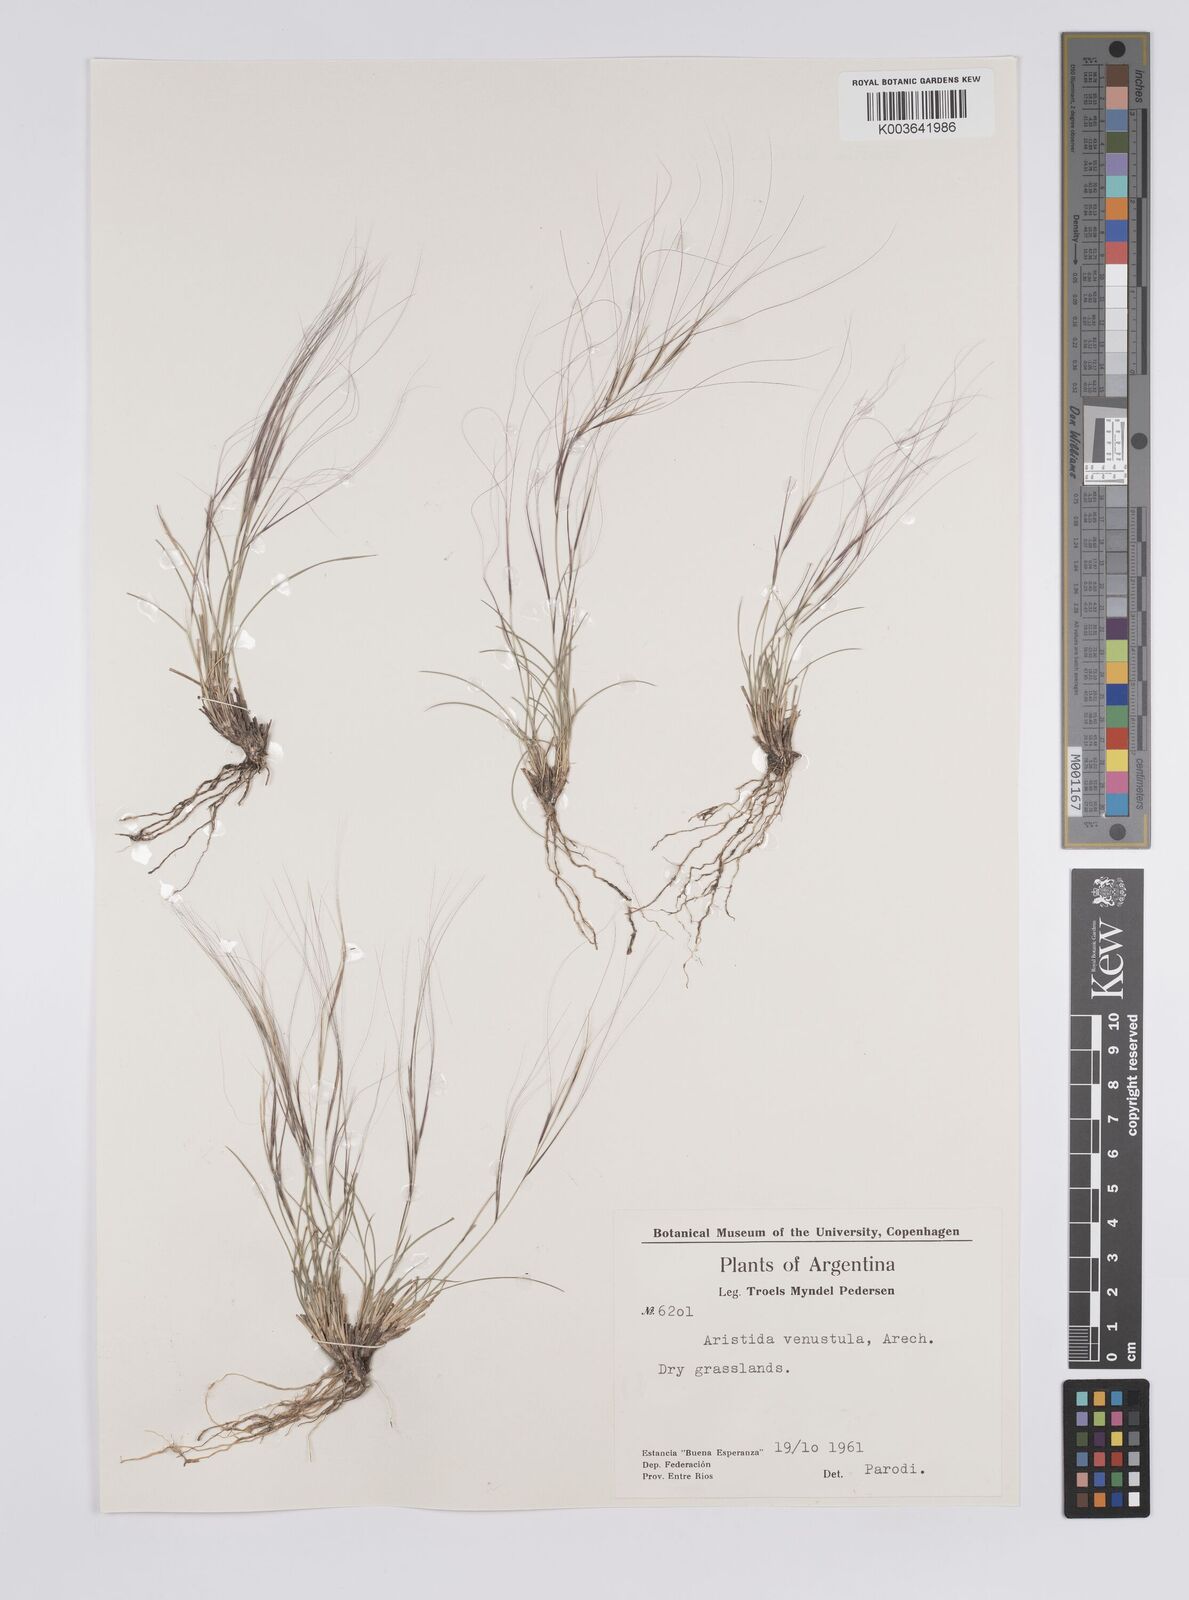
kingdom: Plantae
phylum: Tracheophyta
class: Liliopsida
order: Poales
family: Poaceae
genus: Aristida
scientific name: Aristida venustula
